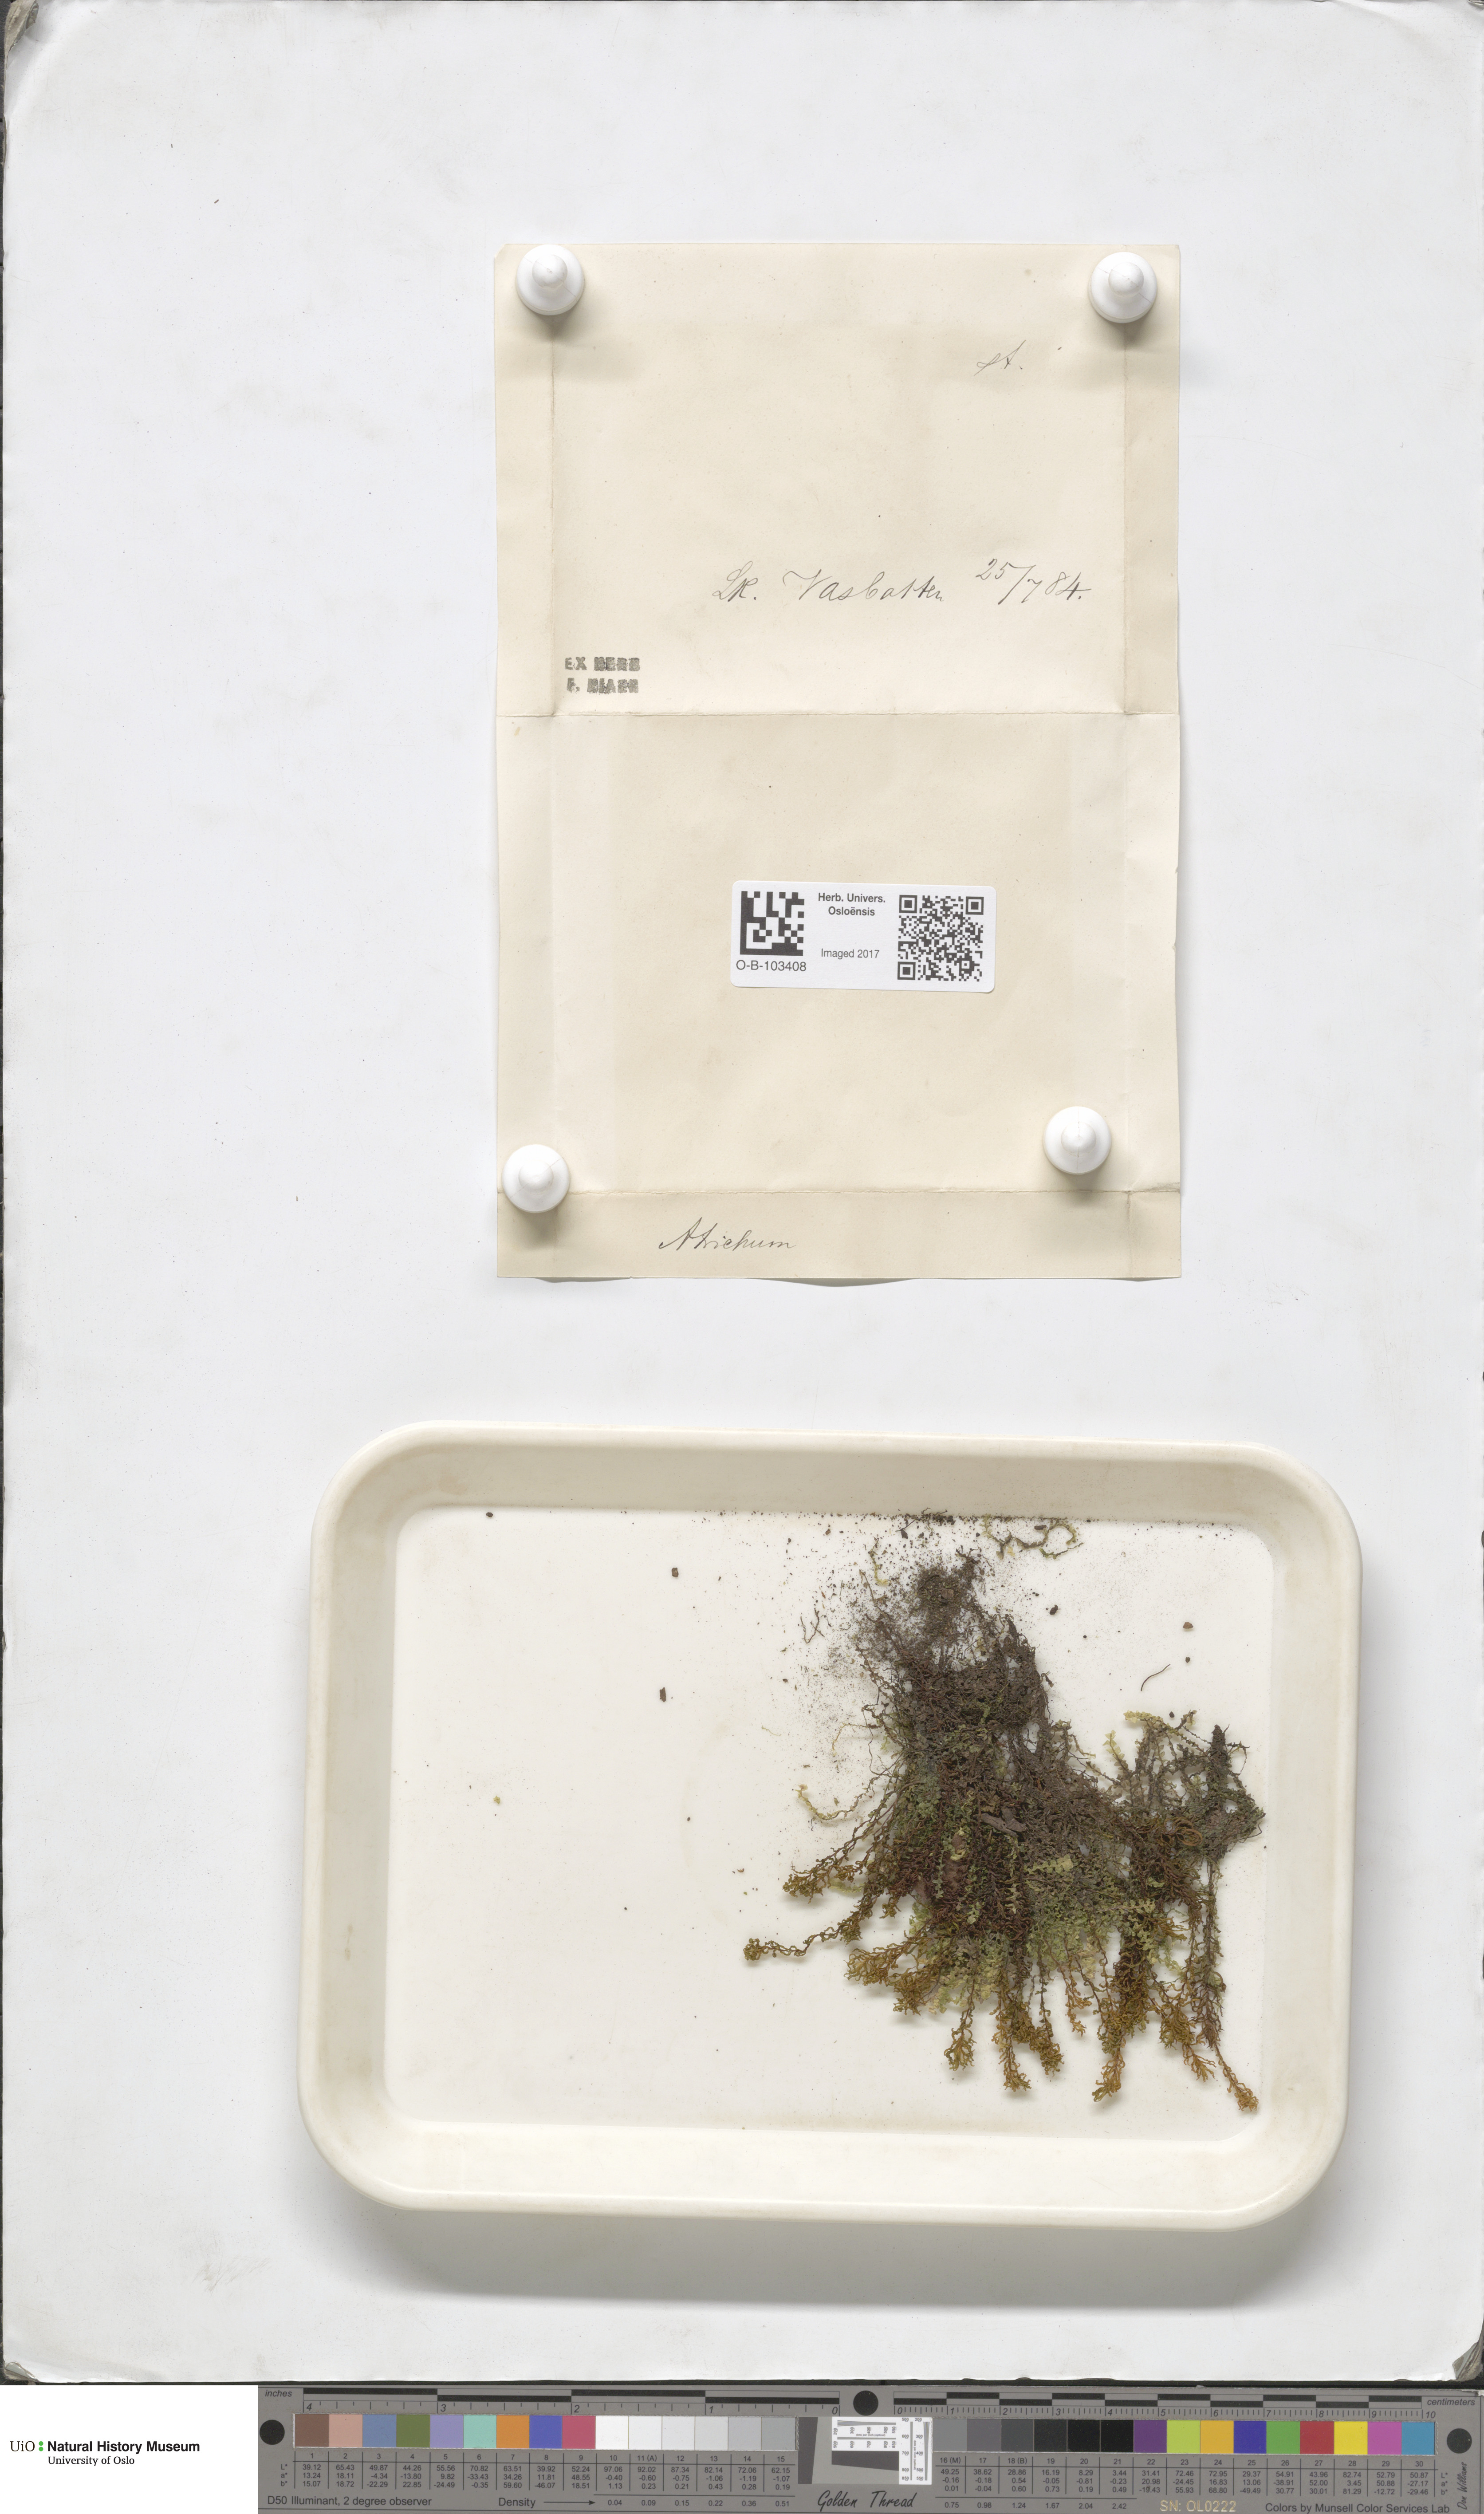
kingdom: Plantae
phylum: Bryophyta
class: Polytrichopsida
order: Polytrichales
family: Polytrichaceae
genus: Atrichum
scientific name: Atrichum undulatum
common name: Common smoothcap
